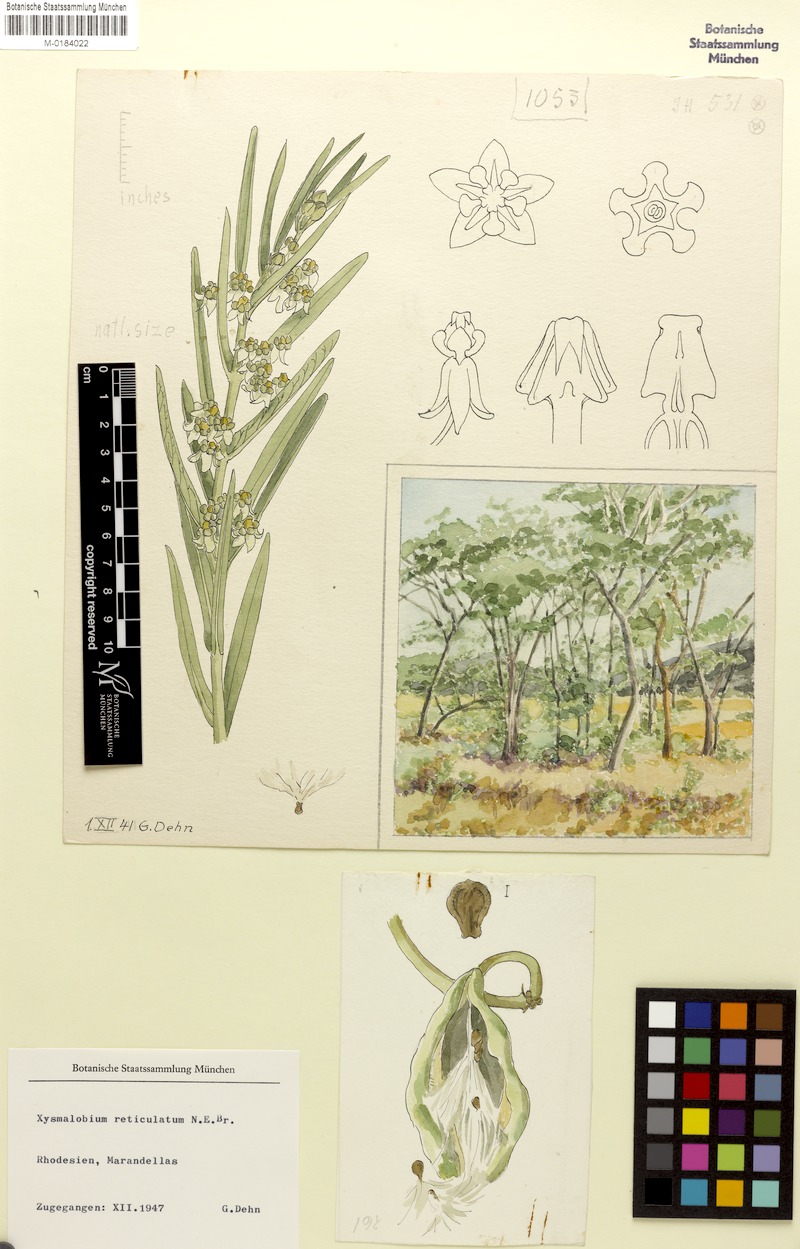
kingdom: Plantae
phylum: Tracheophyta
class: Magnoliopsida
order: Gentianales
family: Apocynaceae
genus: Xysmalobium
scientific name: Xysmalobium heudelotianum
